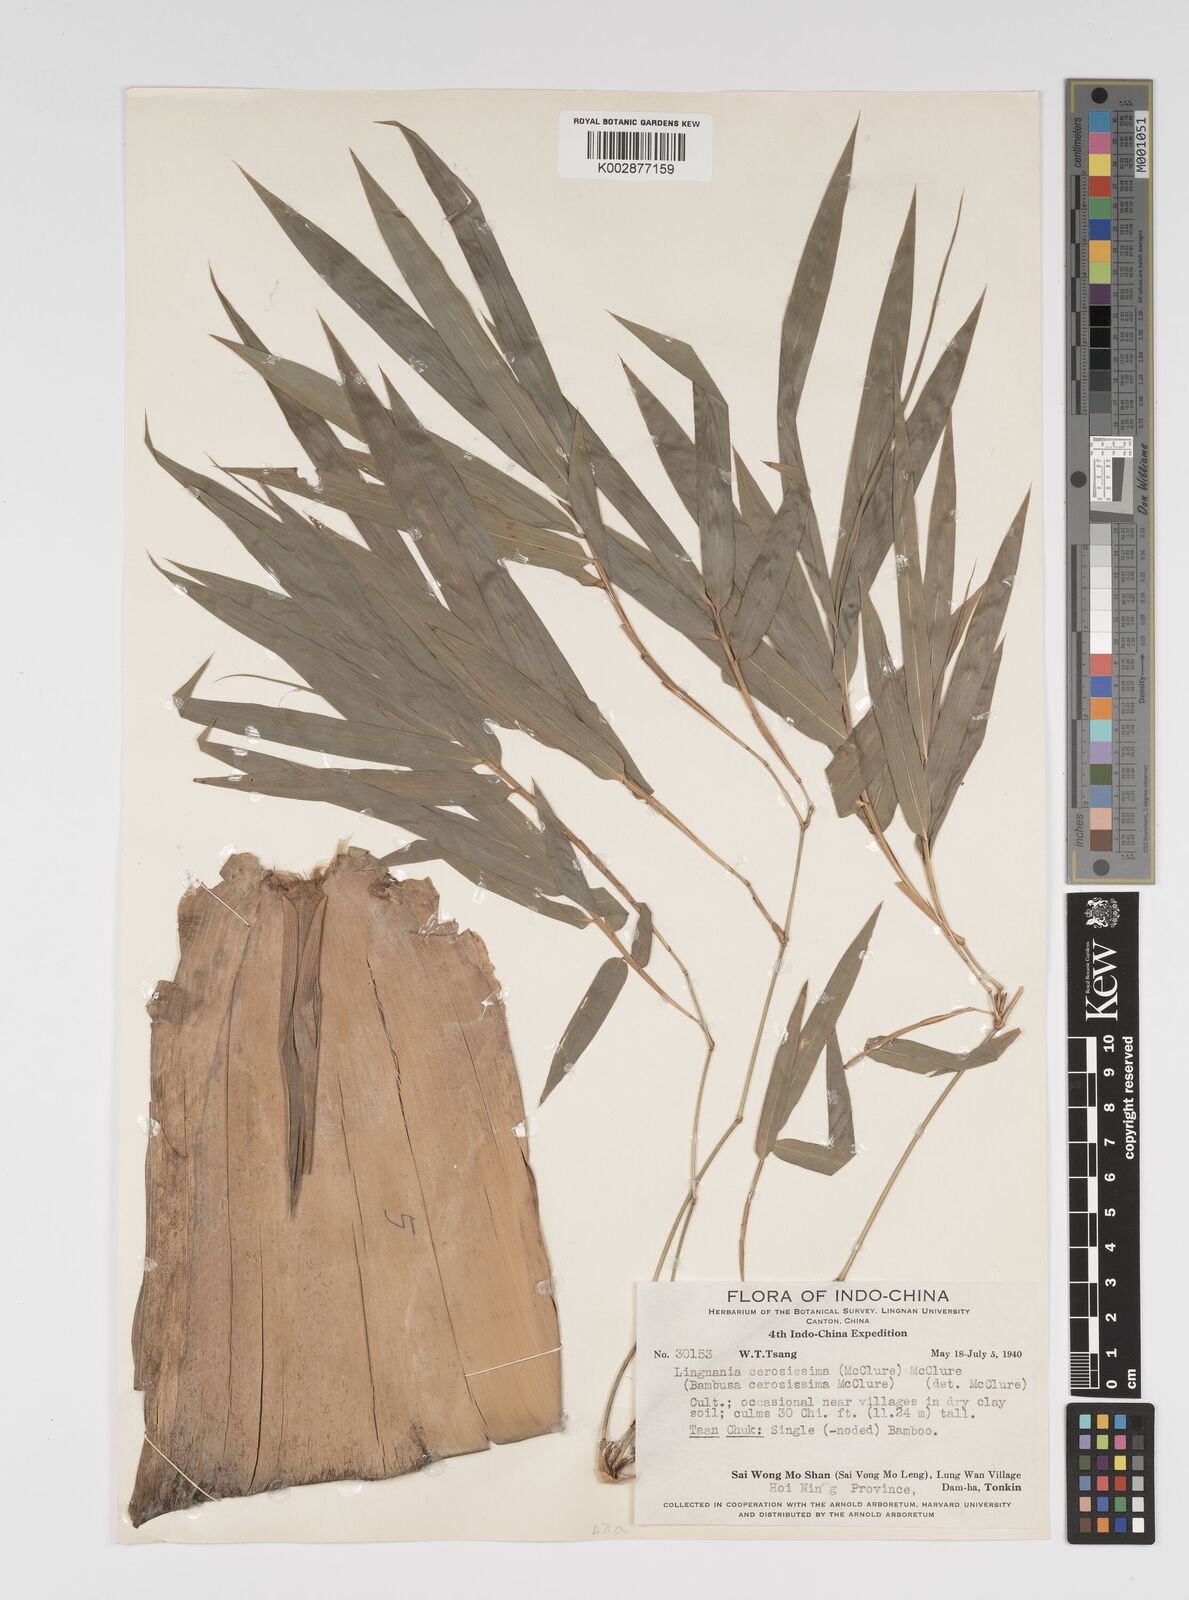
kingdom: Plantae
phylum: Tracheophyta
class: Liliopsida
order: Poales
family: Poaceae
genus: Bambusa
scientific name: Bambusa cerosissima
